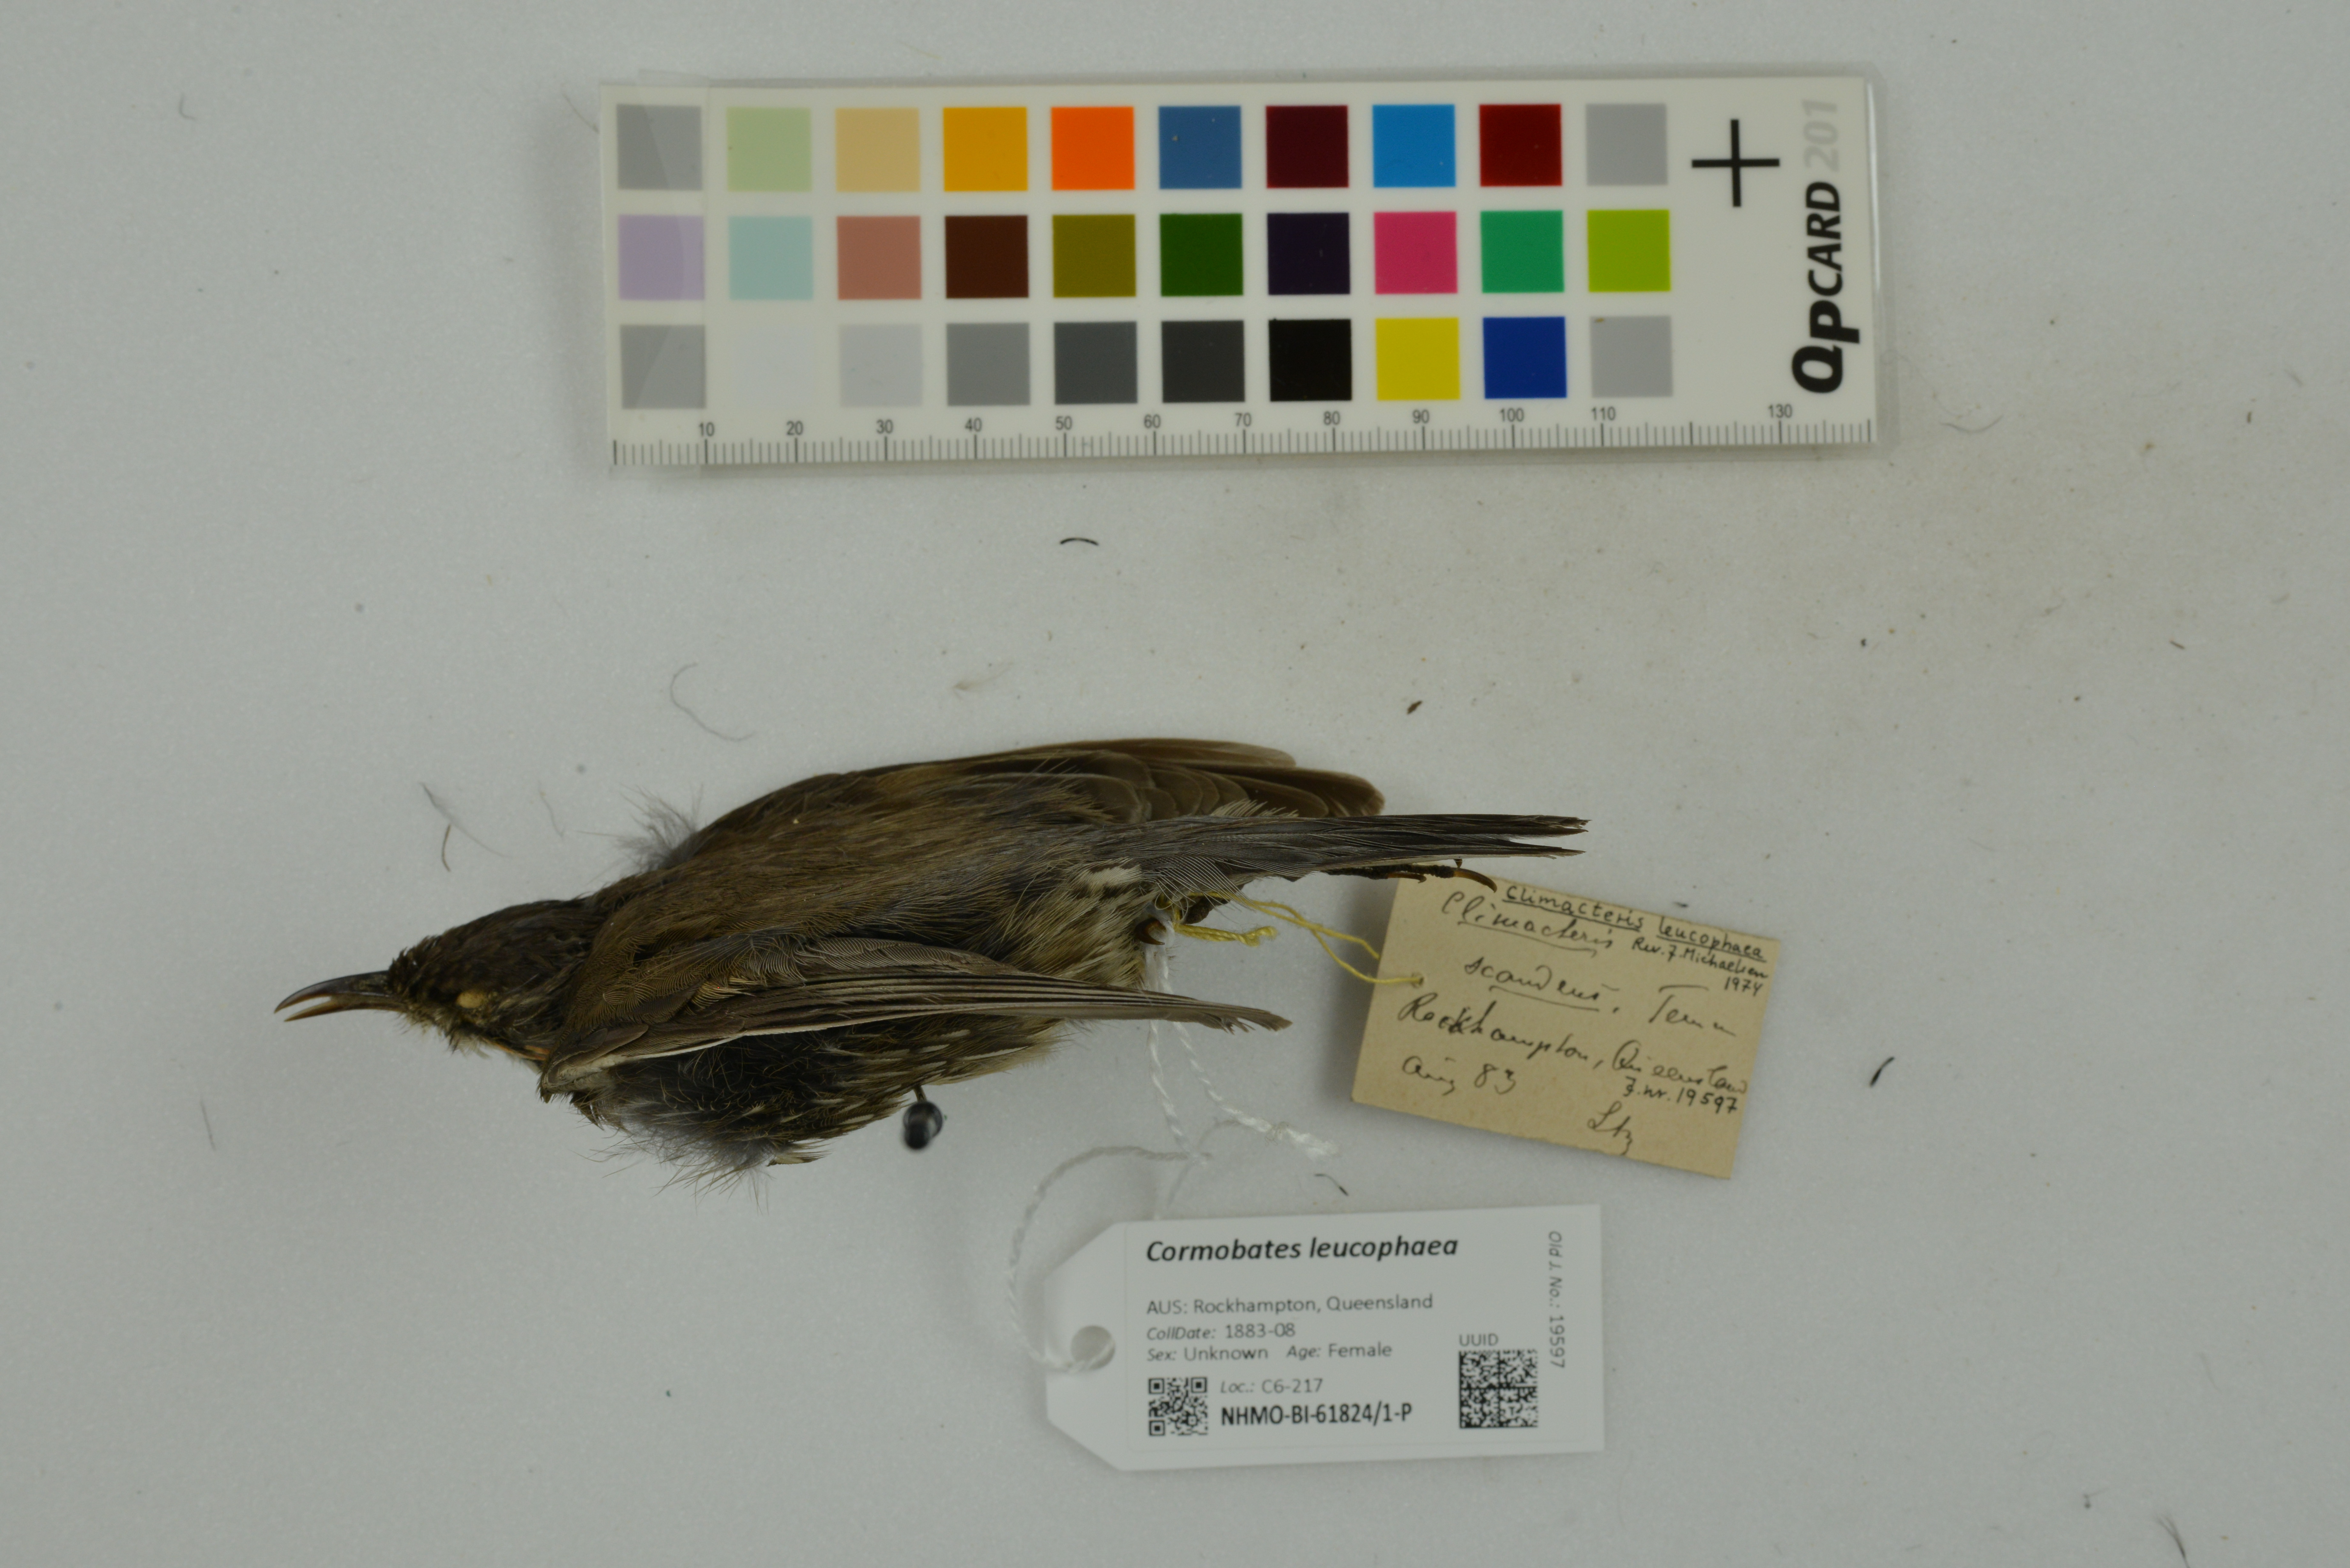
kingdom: Animalia
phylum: Chordata
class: Aves
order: Passeriformes
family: Climacteridae
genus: Cormobates
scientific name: Cormobates leucophaea
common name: White-throated treecreeper
